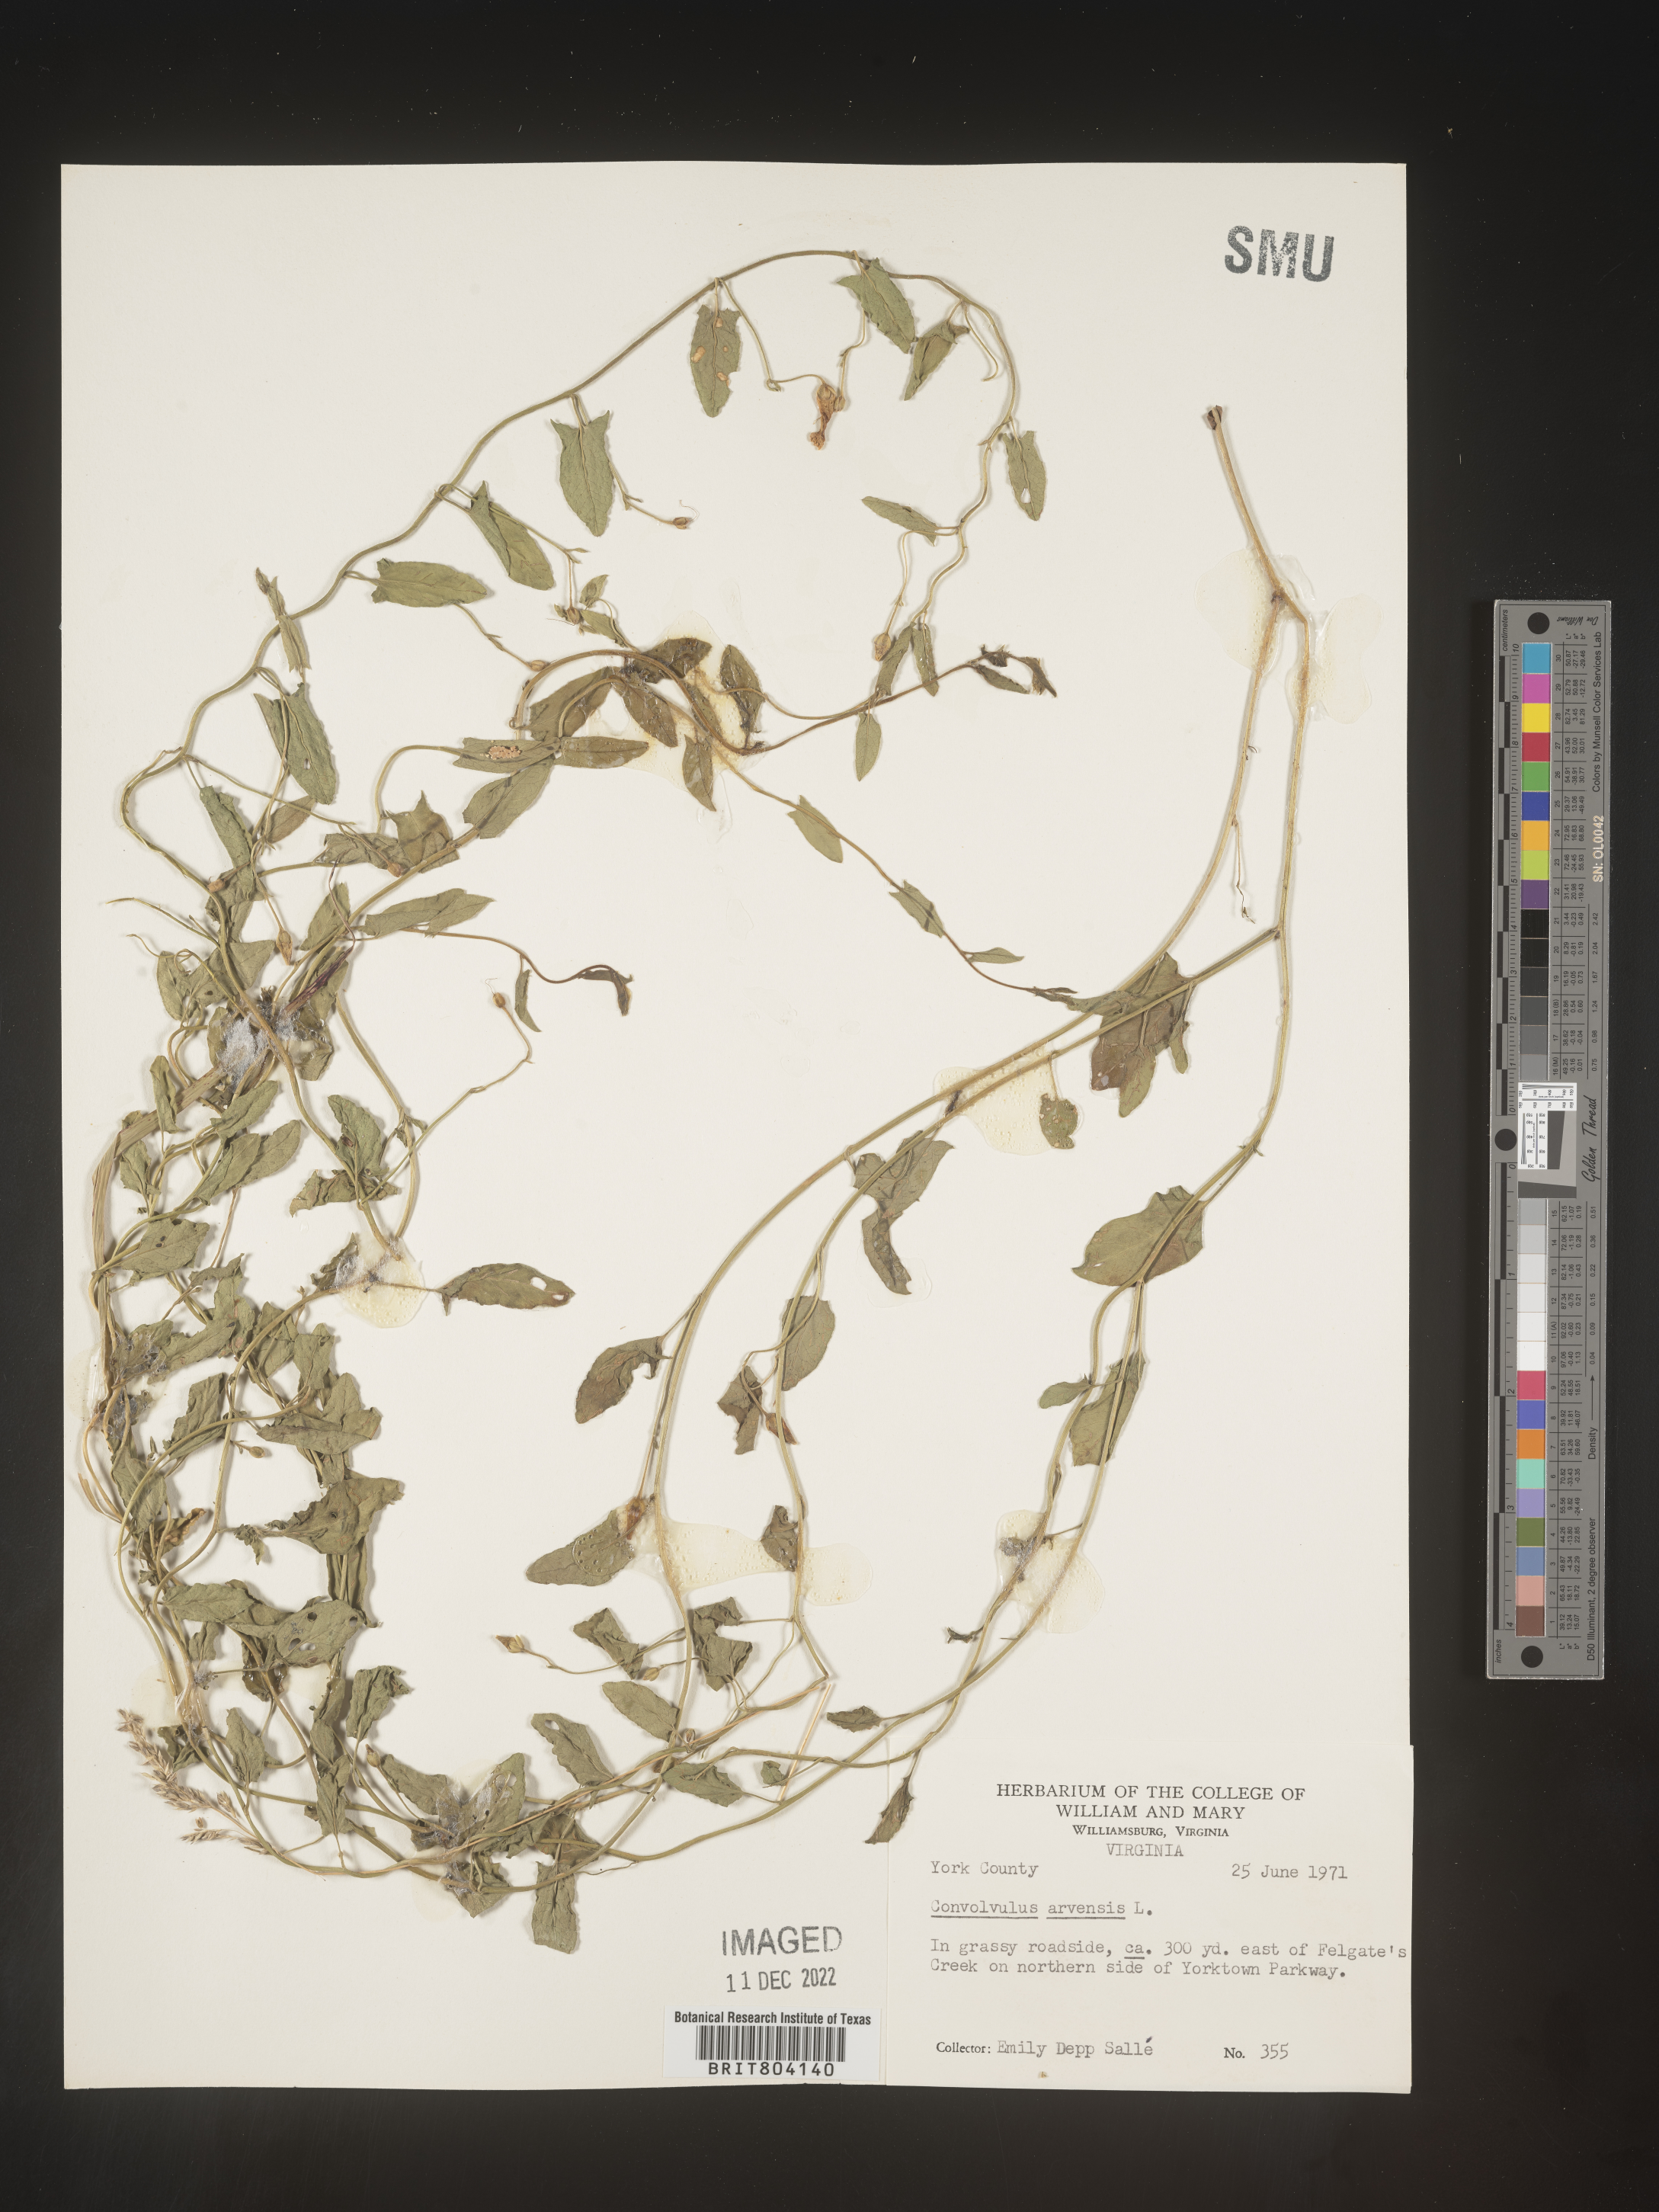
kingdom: Plantae
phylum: Tracheophyta
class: Magnoliopsida
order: Solanales
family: Convolvulaceae
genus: Convolvulus
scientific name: Convolvulus arvensis
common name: Field bindweed
